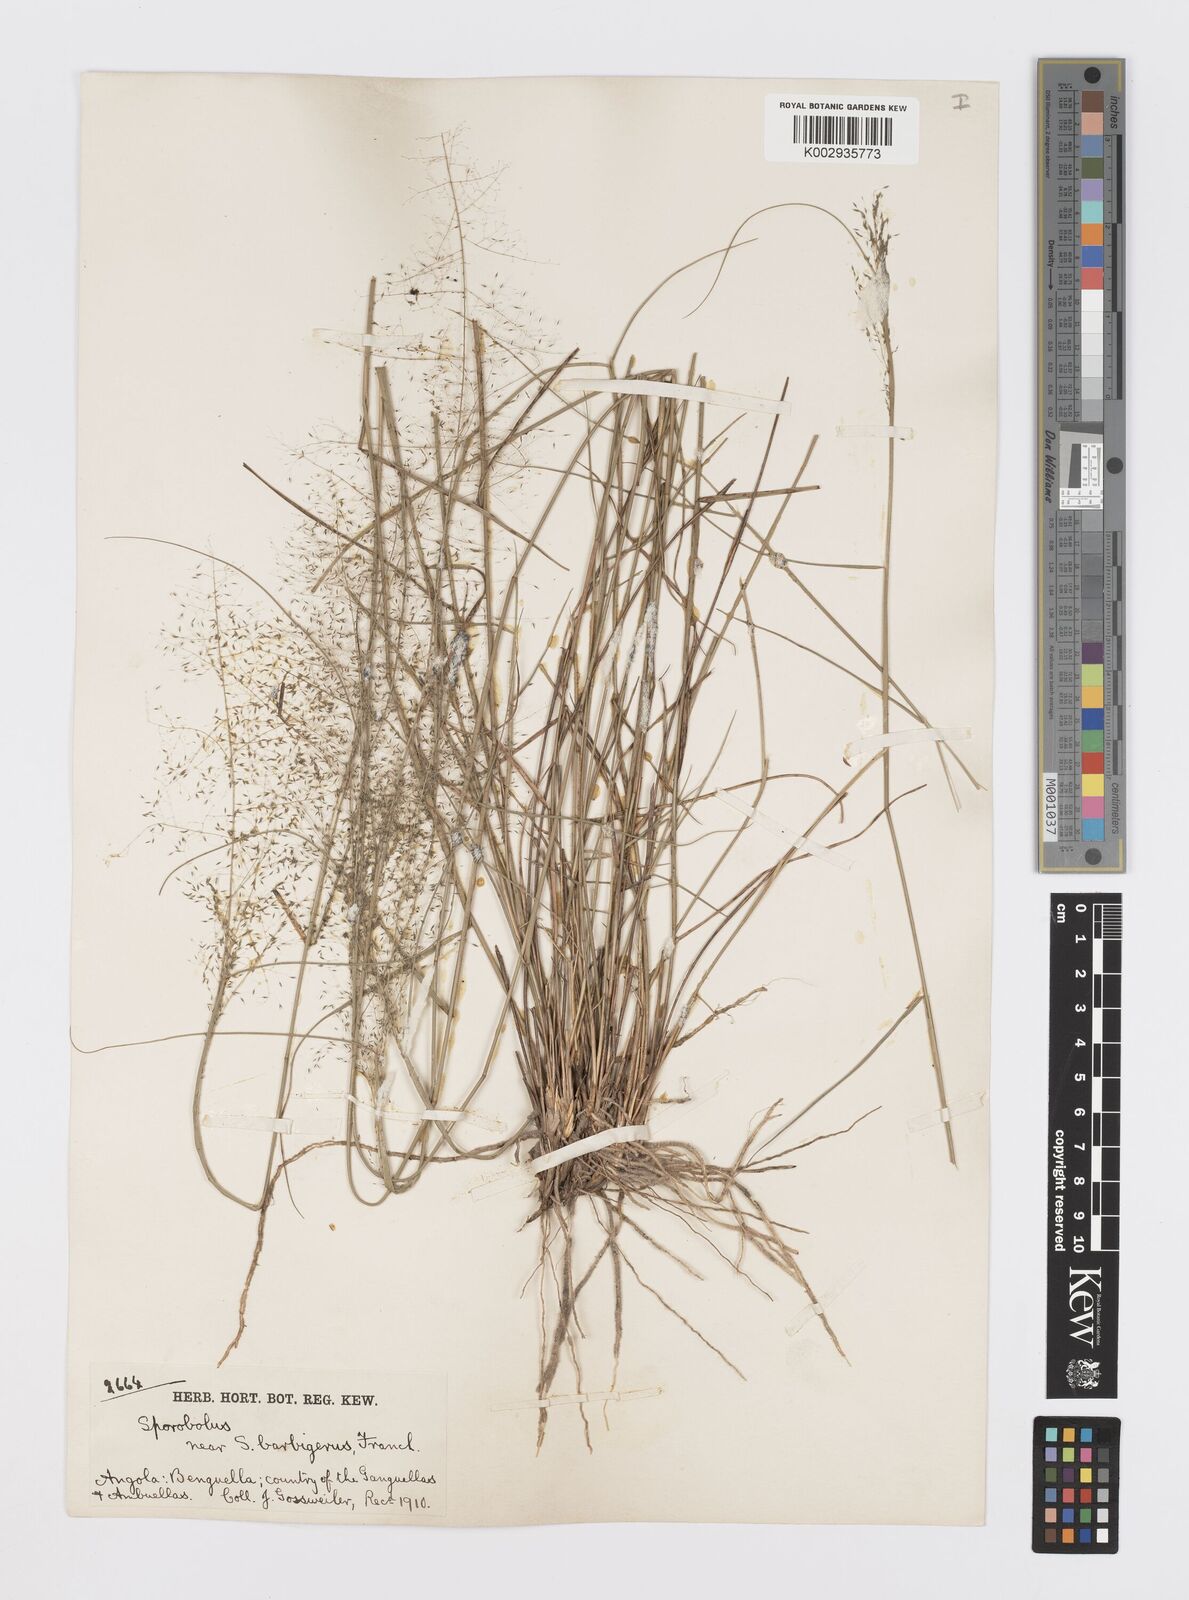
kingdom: Plantae
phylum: Tracheophyta
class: Liliopsida
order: Poales
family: Poaceae
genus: Sporobolus
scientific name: Sporobolus welwitschii
